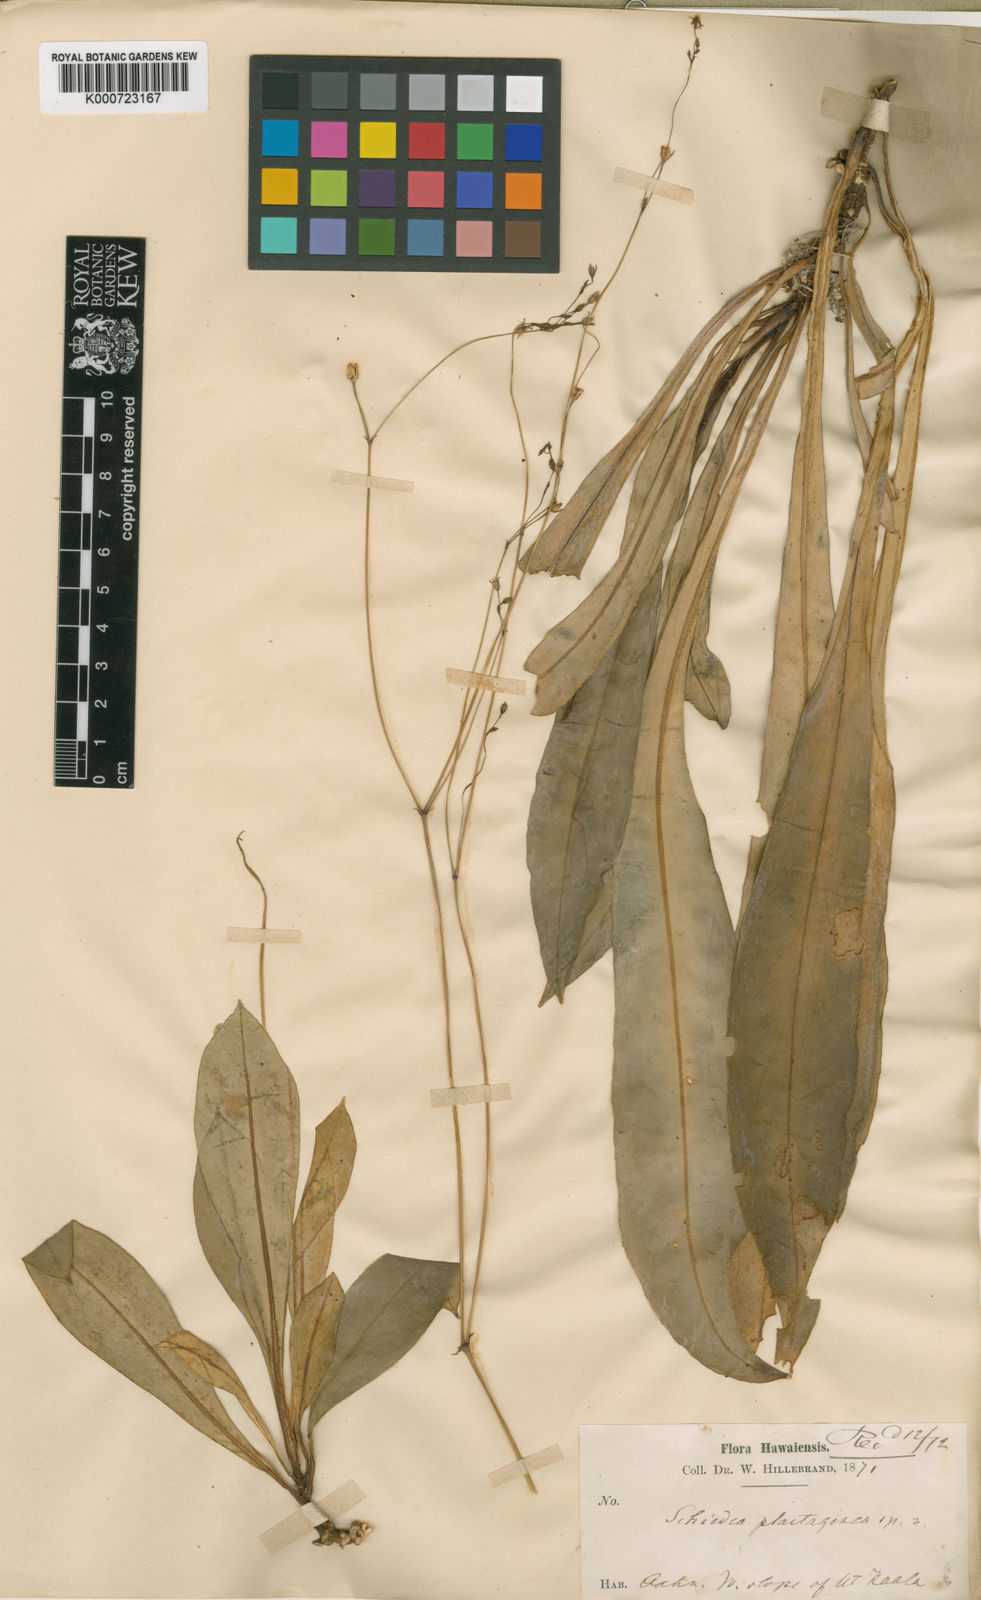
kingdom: Plantae
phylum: Tracheophyta
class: Magnoliopsida
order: Caryophyllales
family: Caryophyllaceae
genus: Schiedea
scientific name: Schiedea
